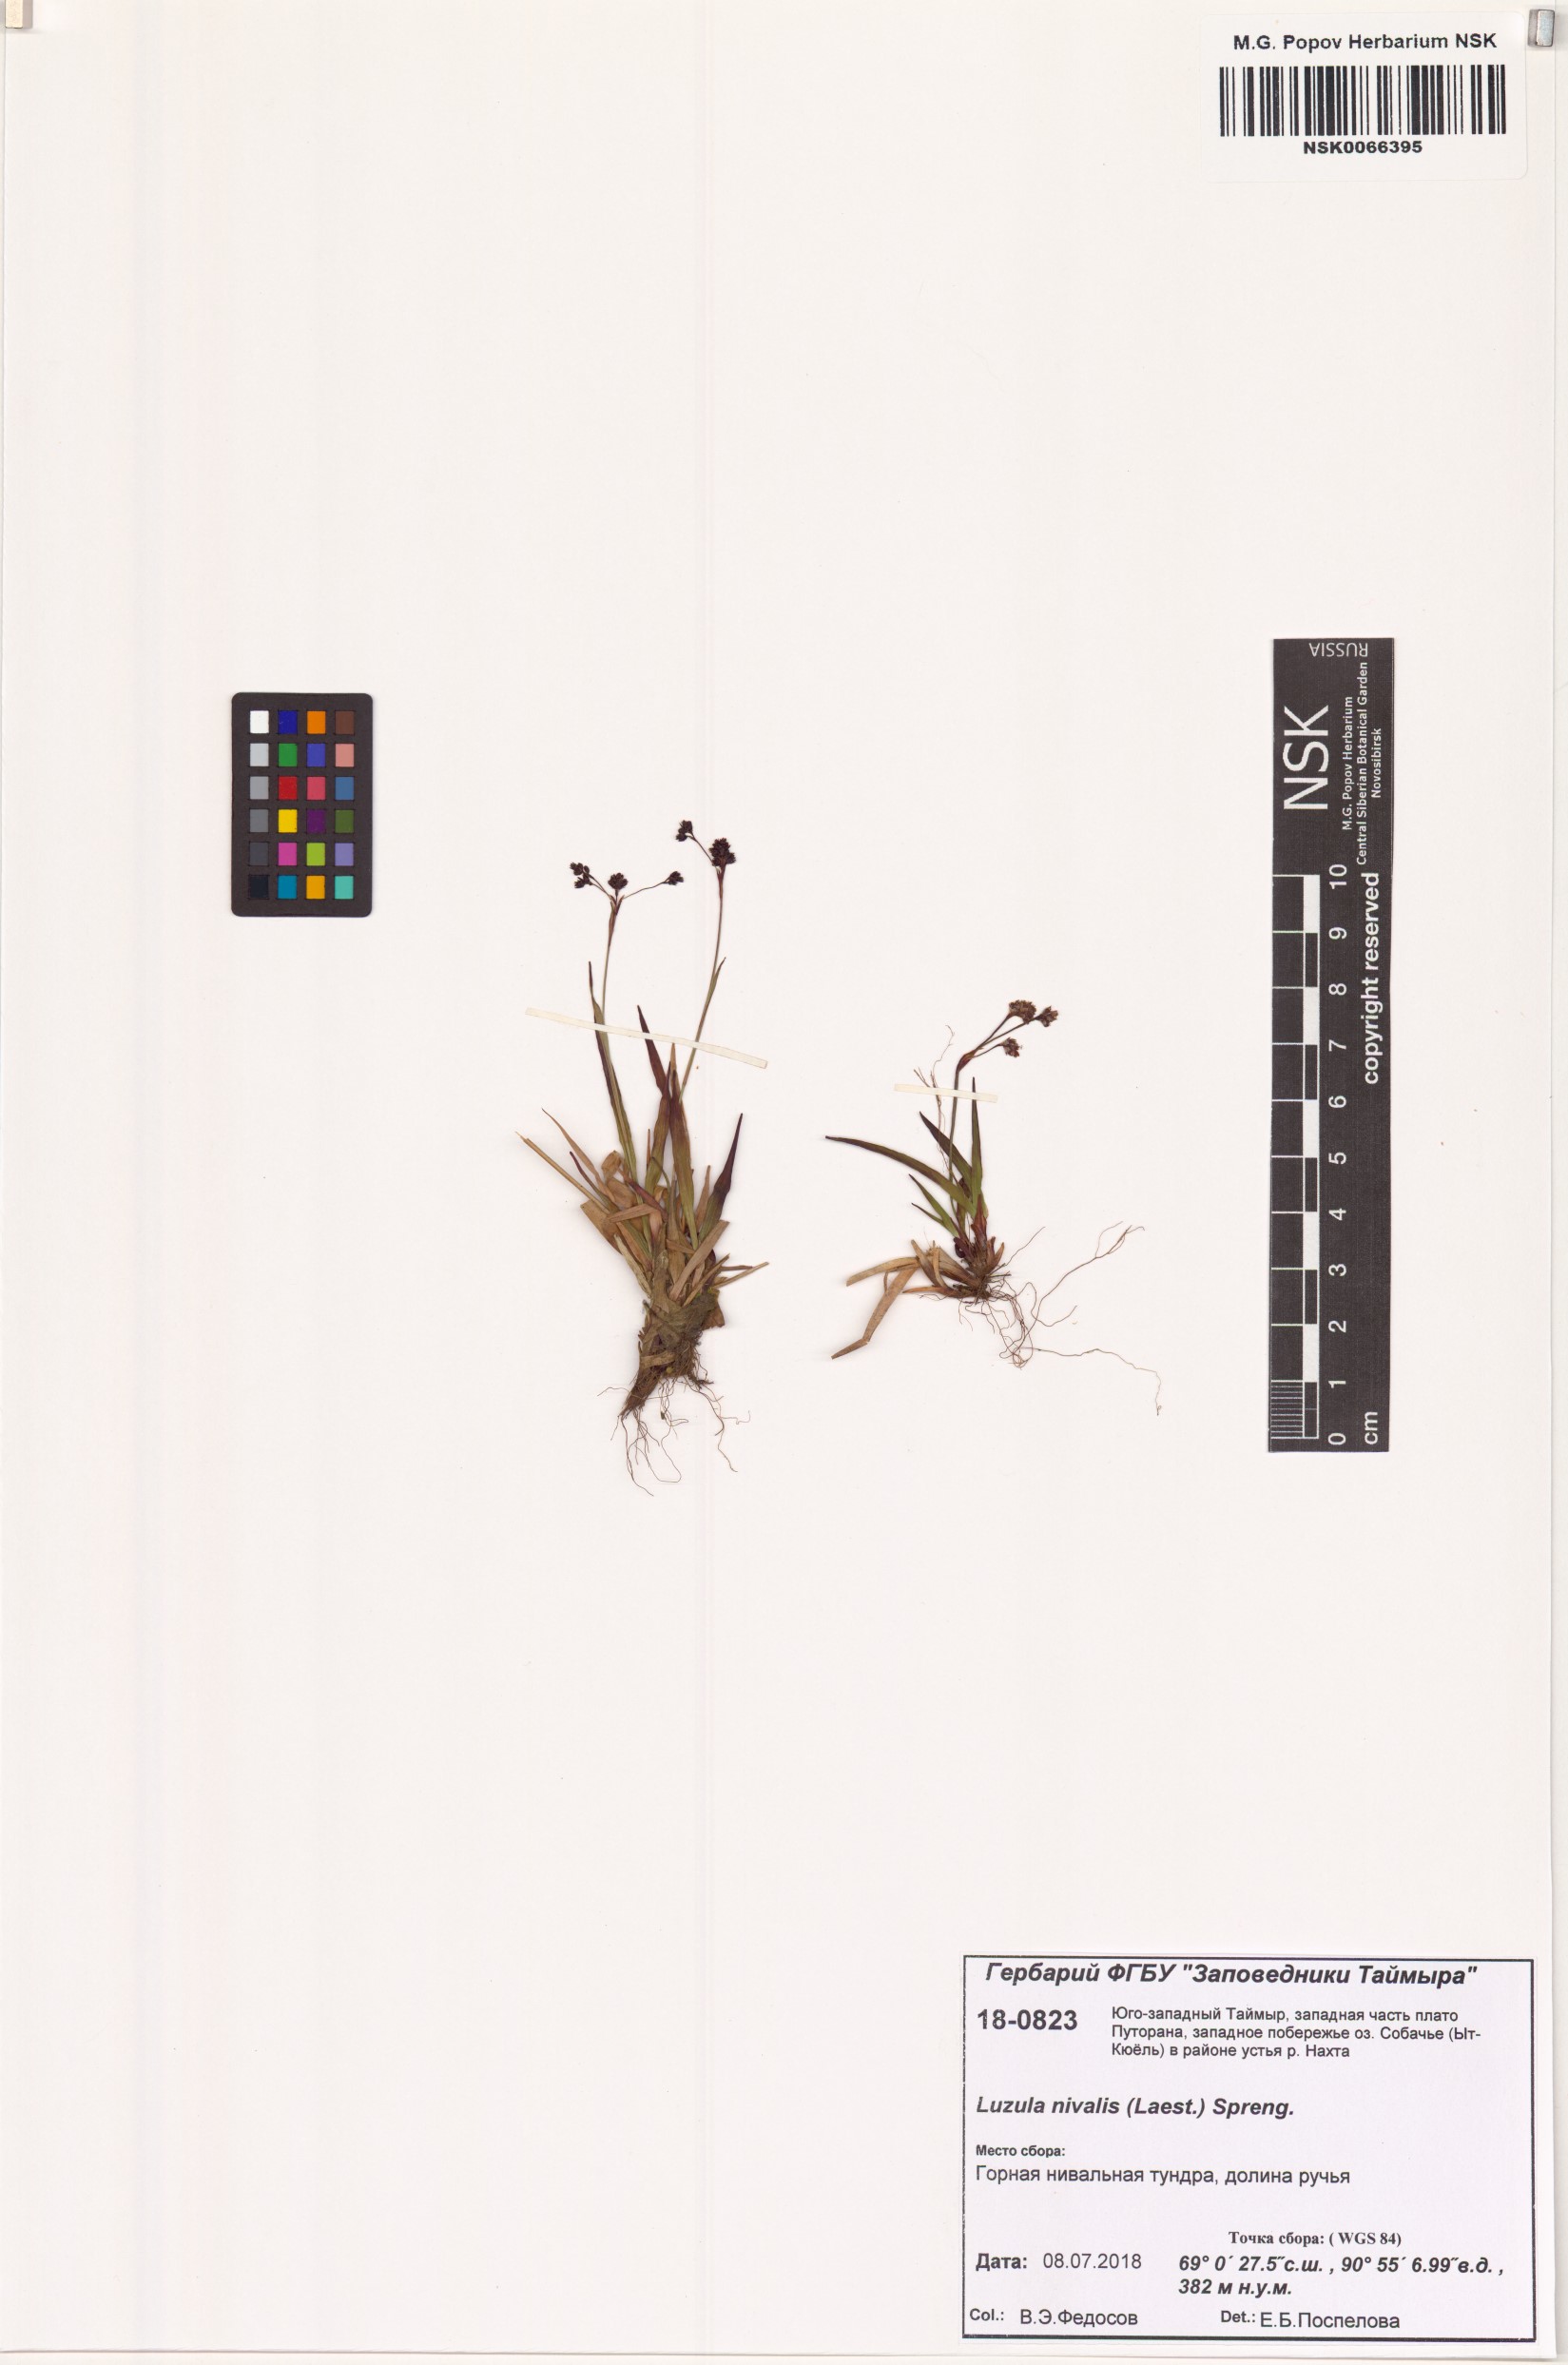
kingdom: Plantae
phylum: Tracheophyta
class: Liliopsida
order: Poales
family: Juncaceae
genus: Luzula
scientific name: Luzula nivalis
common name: Arctic woodrush
